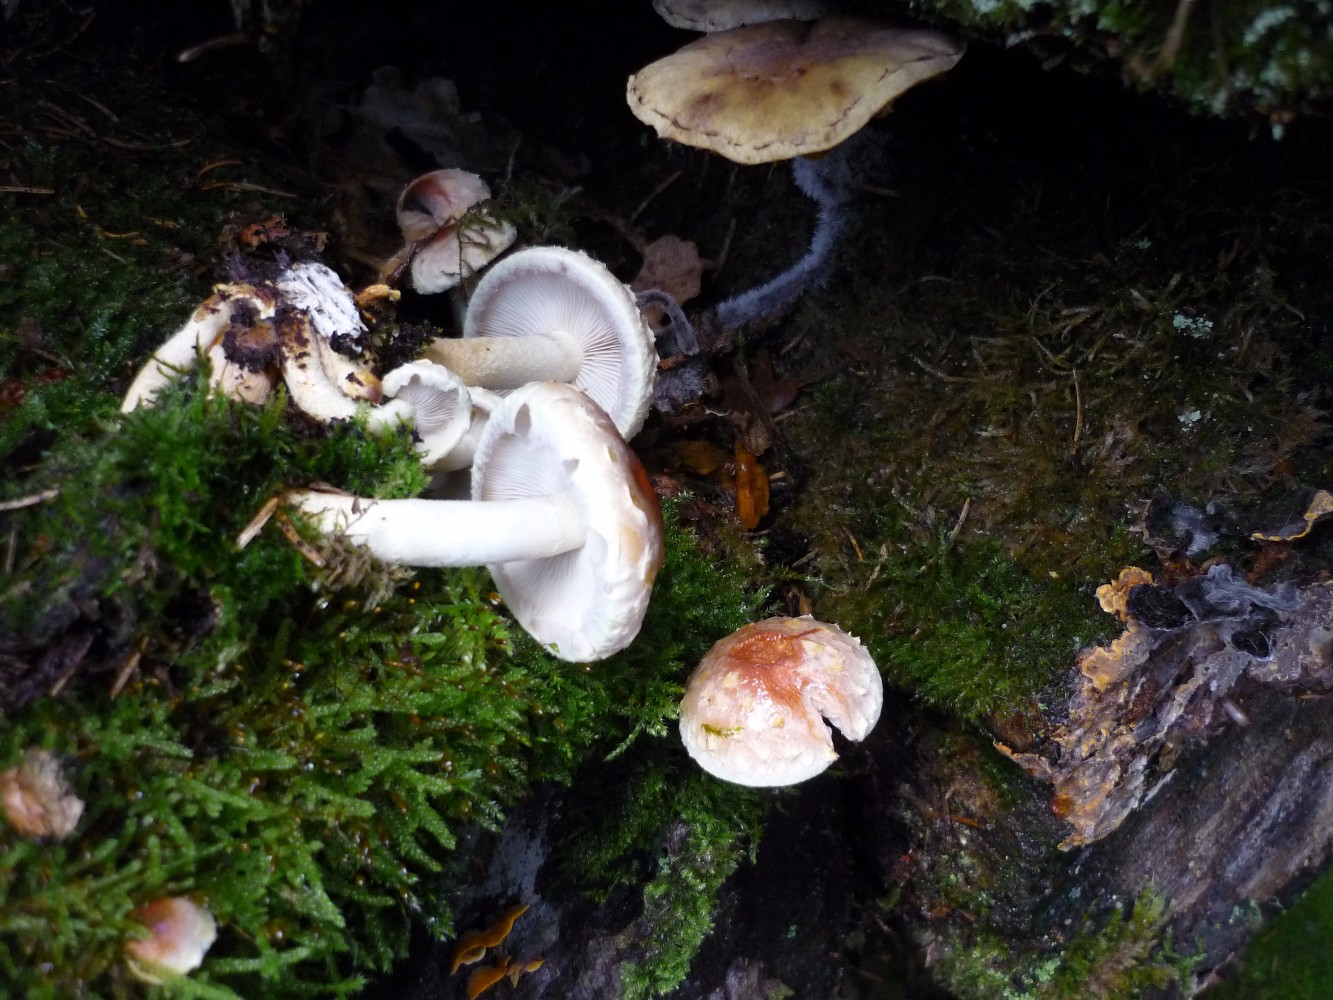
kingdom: Fungi
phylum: Basidiomycota
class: Agaricomycetes
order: Agaricales
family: Strophariaceae
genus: Hypholoma
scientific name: Hypholoma lateritium
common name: teglrød svovlhat
